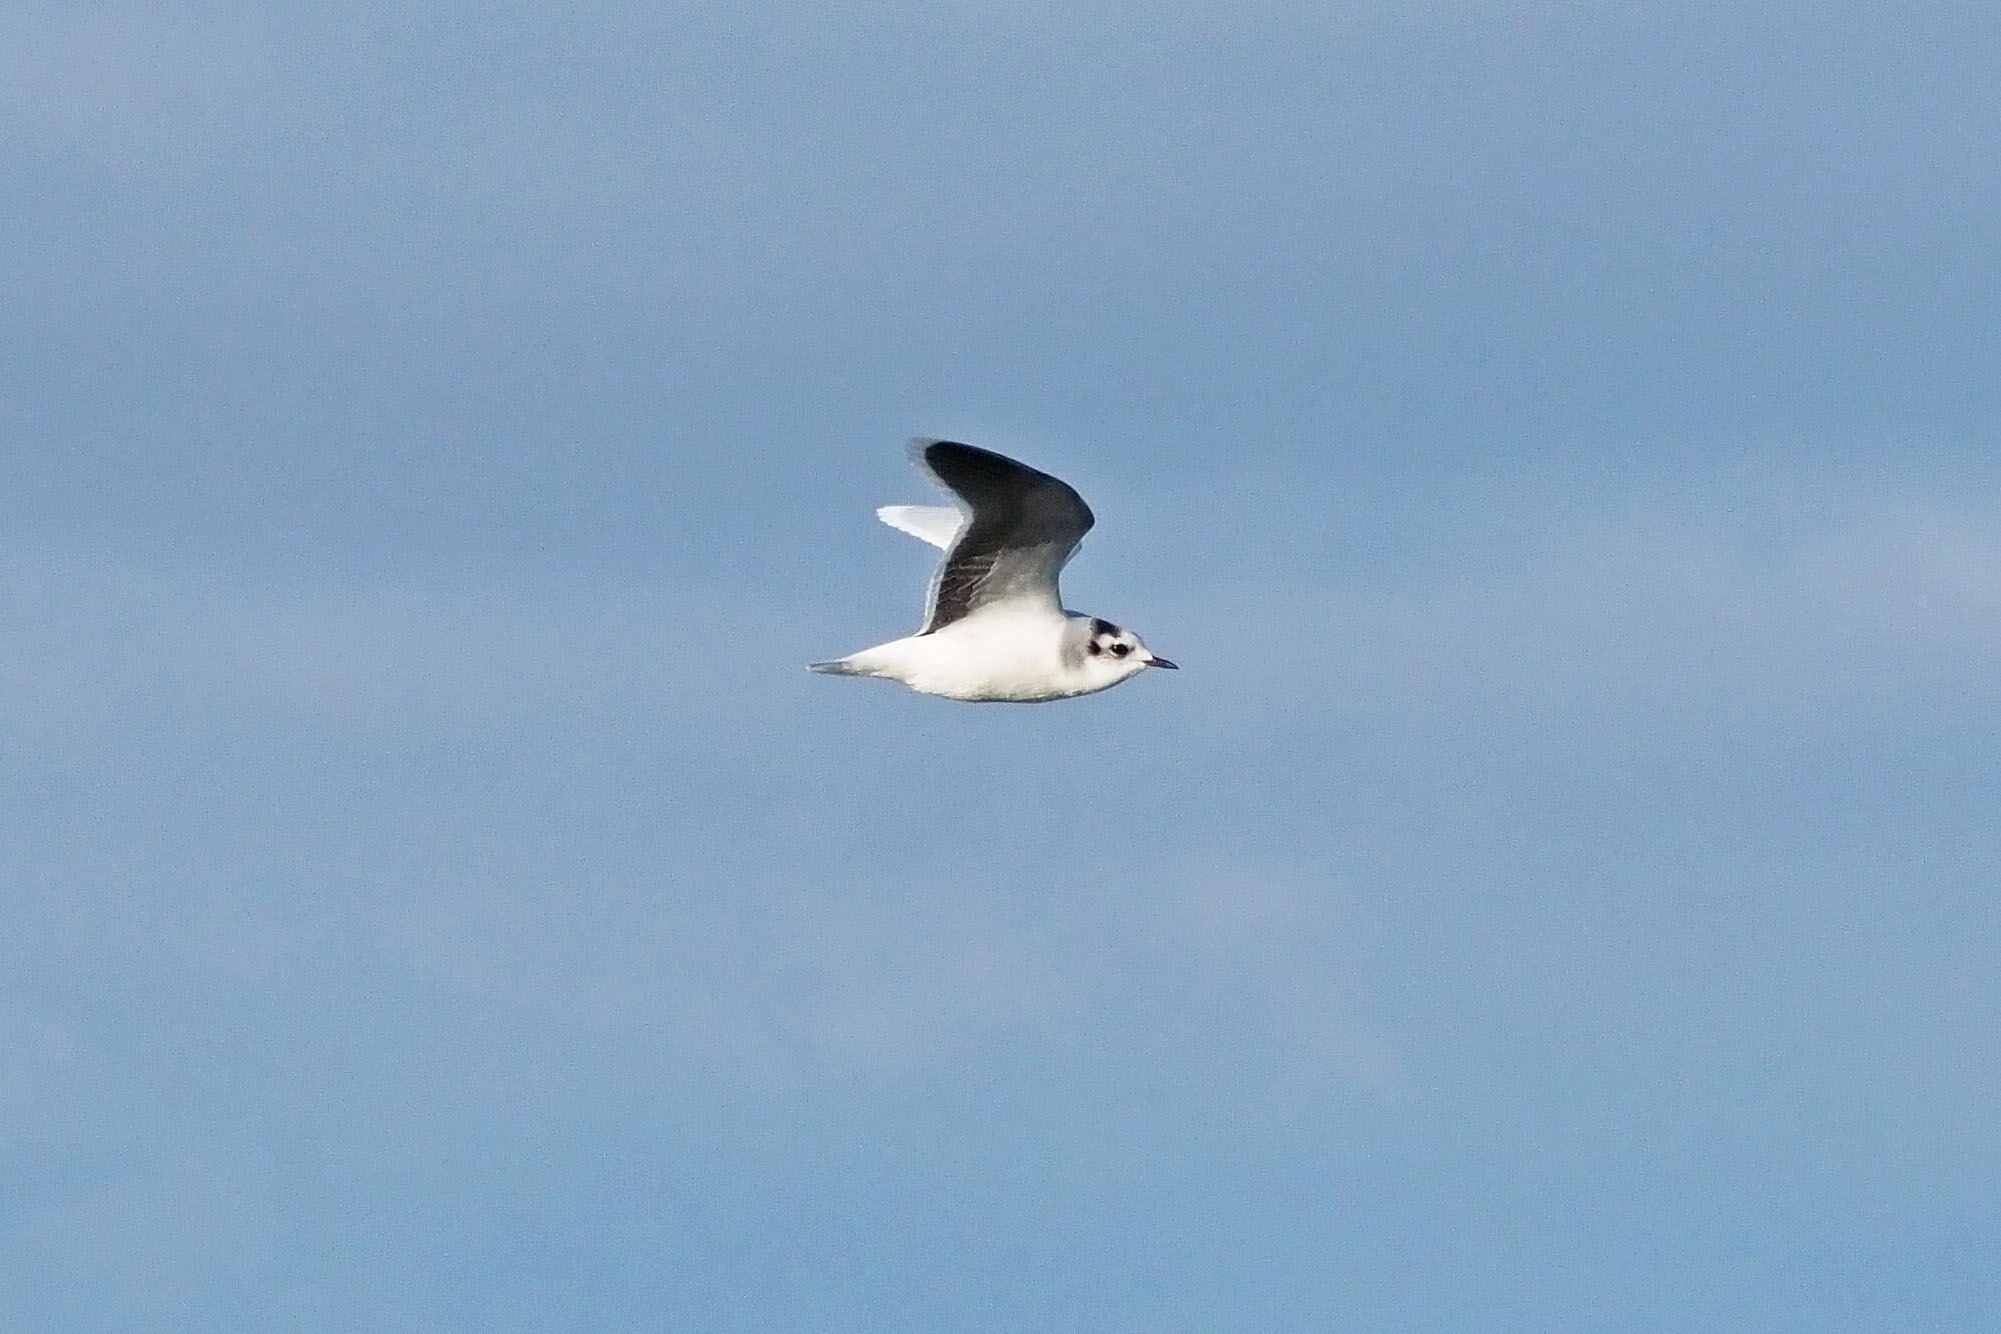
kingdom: Animalia
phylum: Chordata
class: Aves
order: Charadriiformes
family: Laridae
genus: Hydrocoloeus
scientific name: Hydrocoloeus minutus
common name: Dværgmåge
